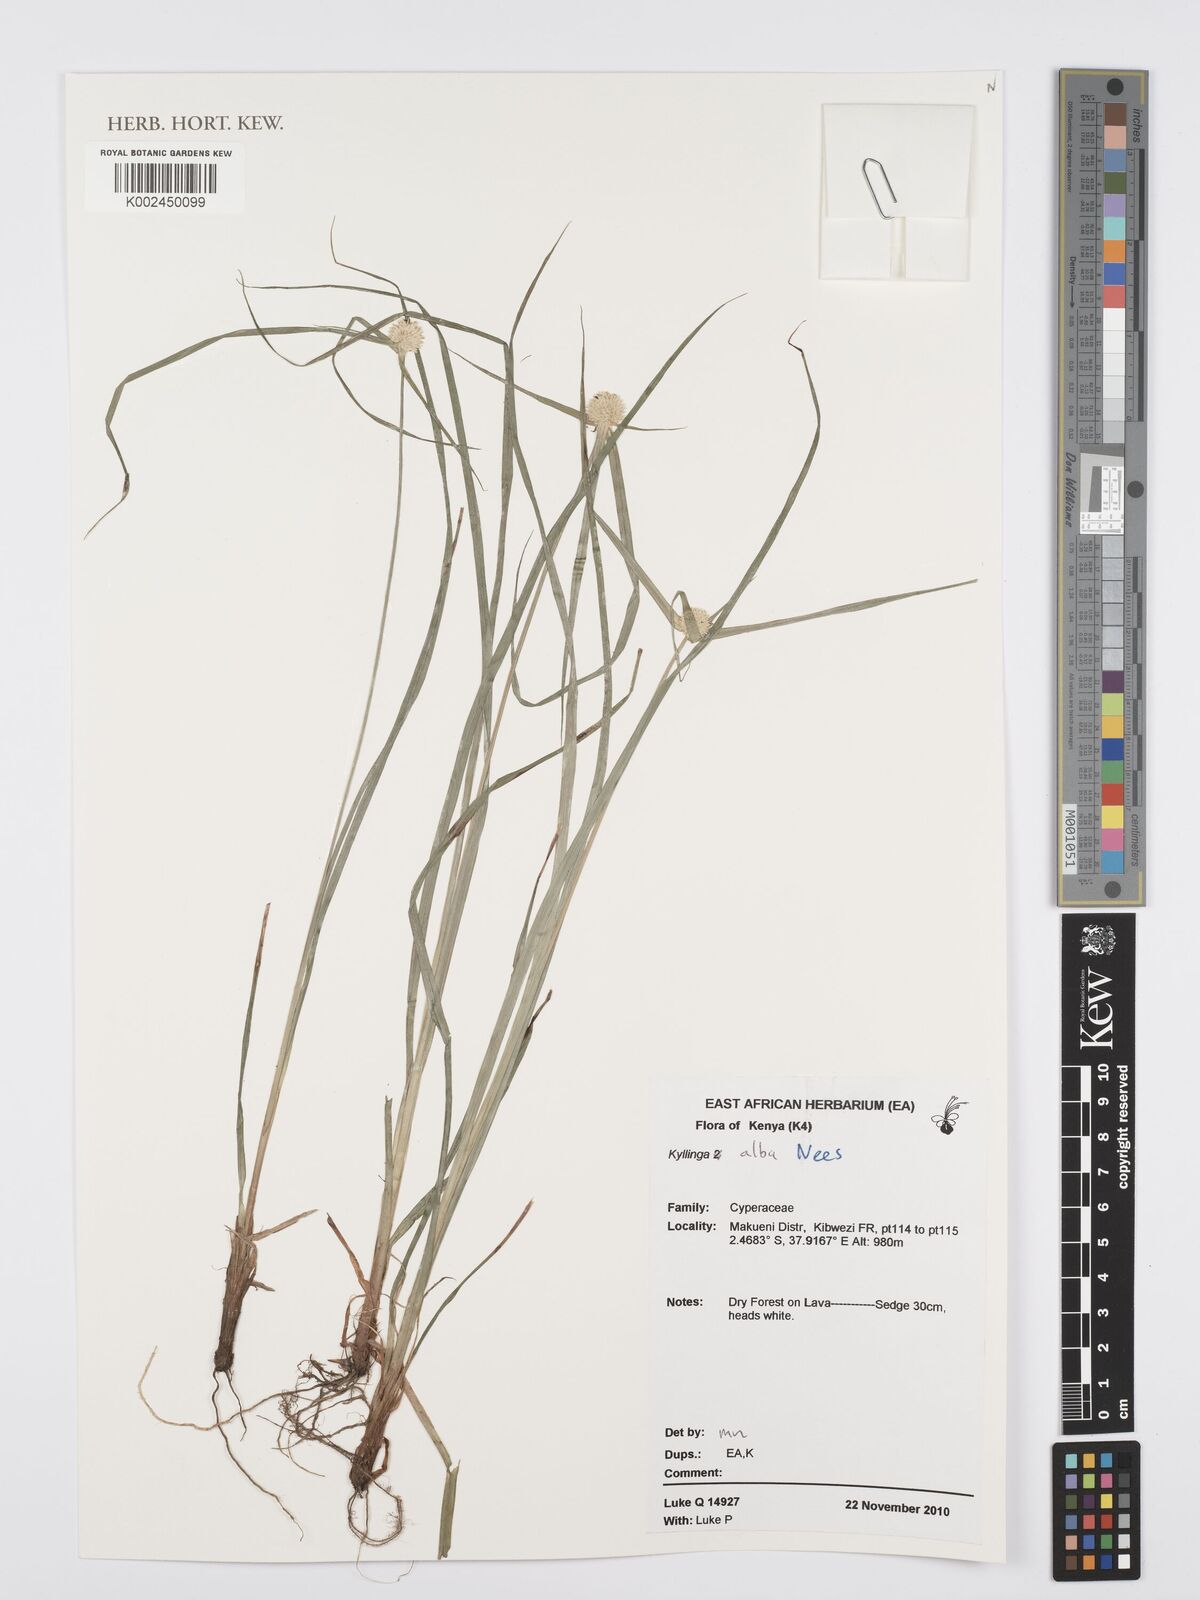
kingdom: Plantae
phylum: Tracheophyta
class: Liliopsida
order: Poales
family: Cyperaceae
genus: Cyperus
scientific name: Cyperus
